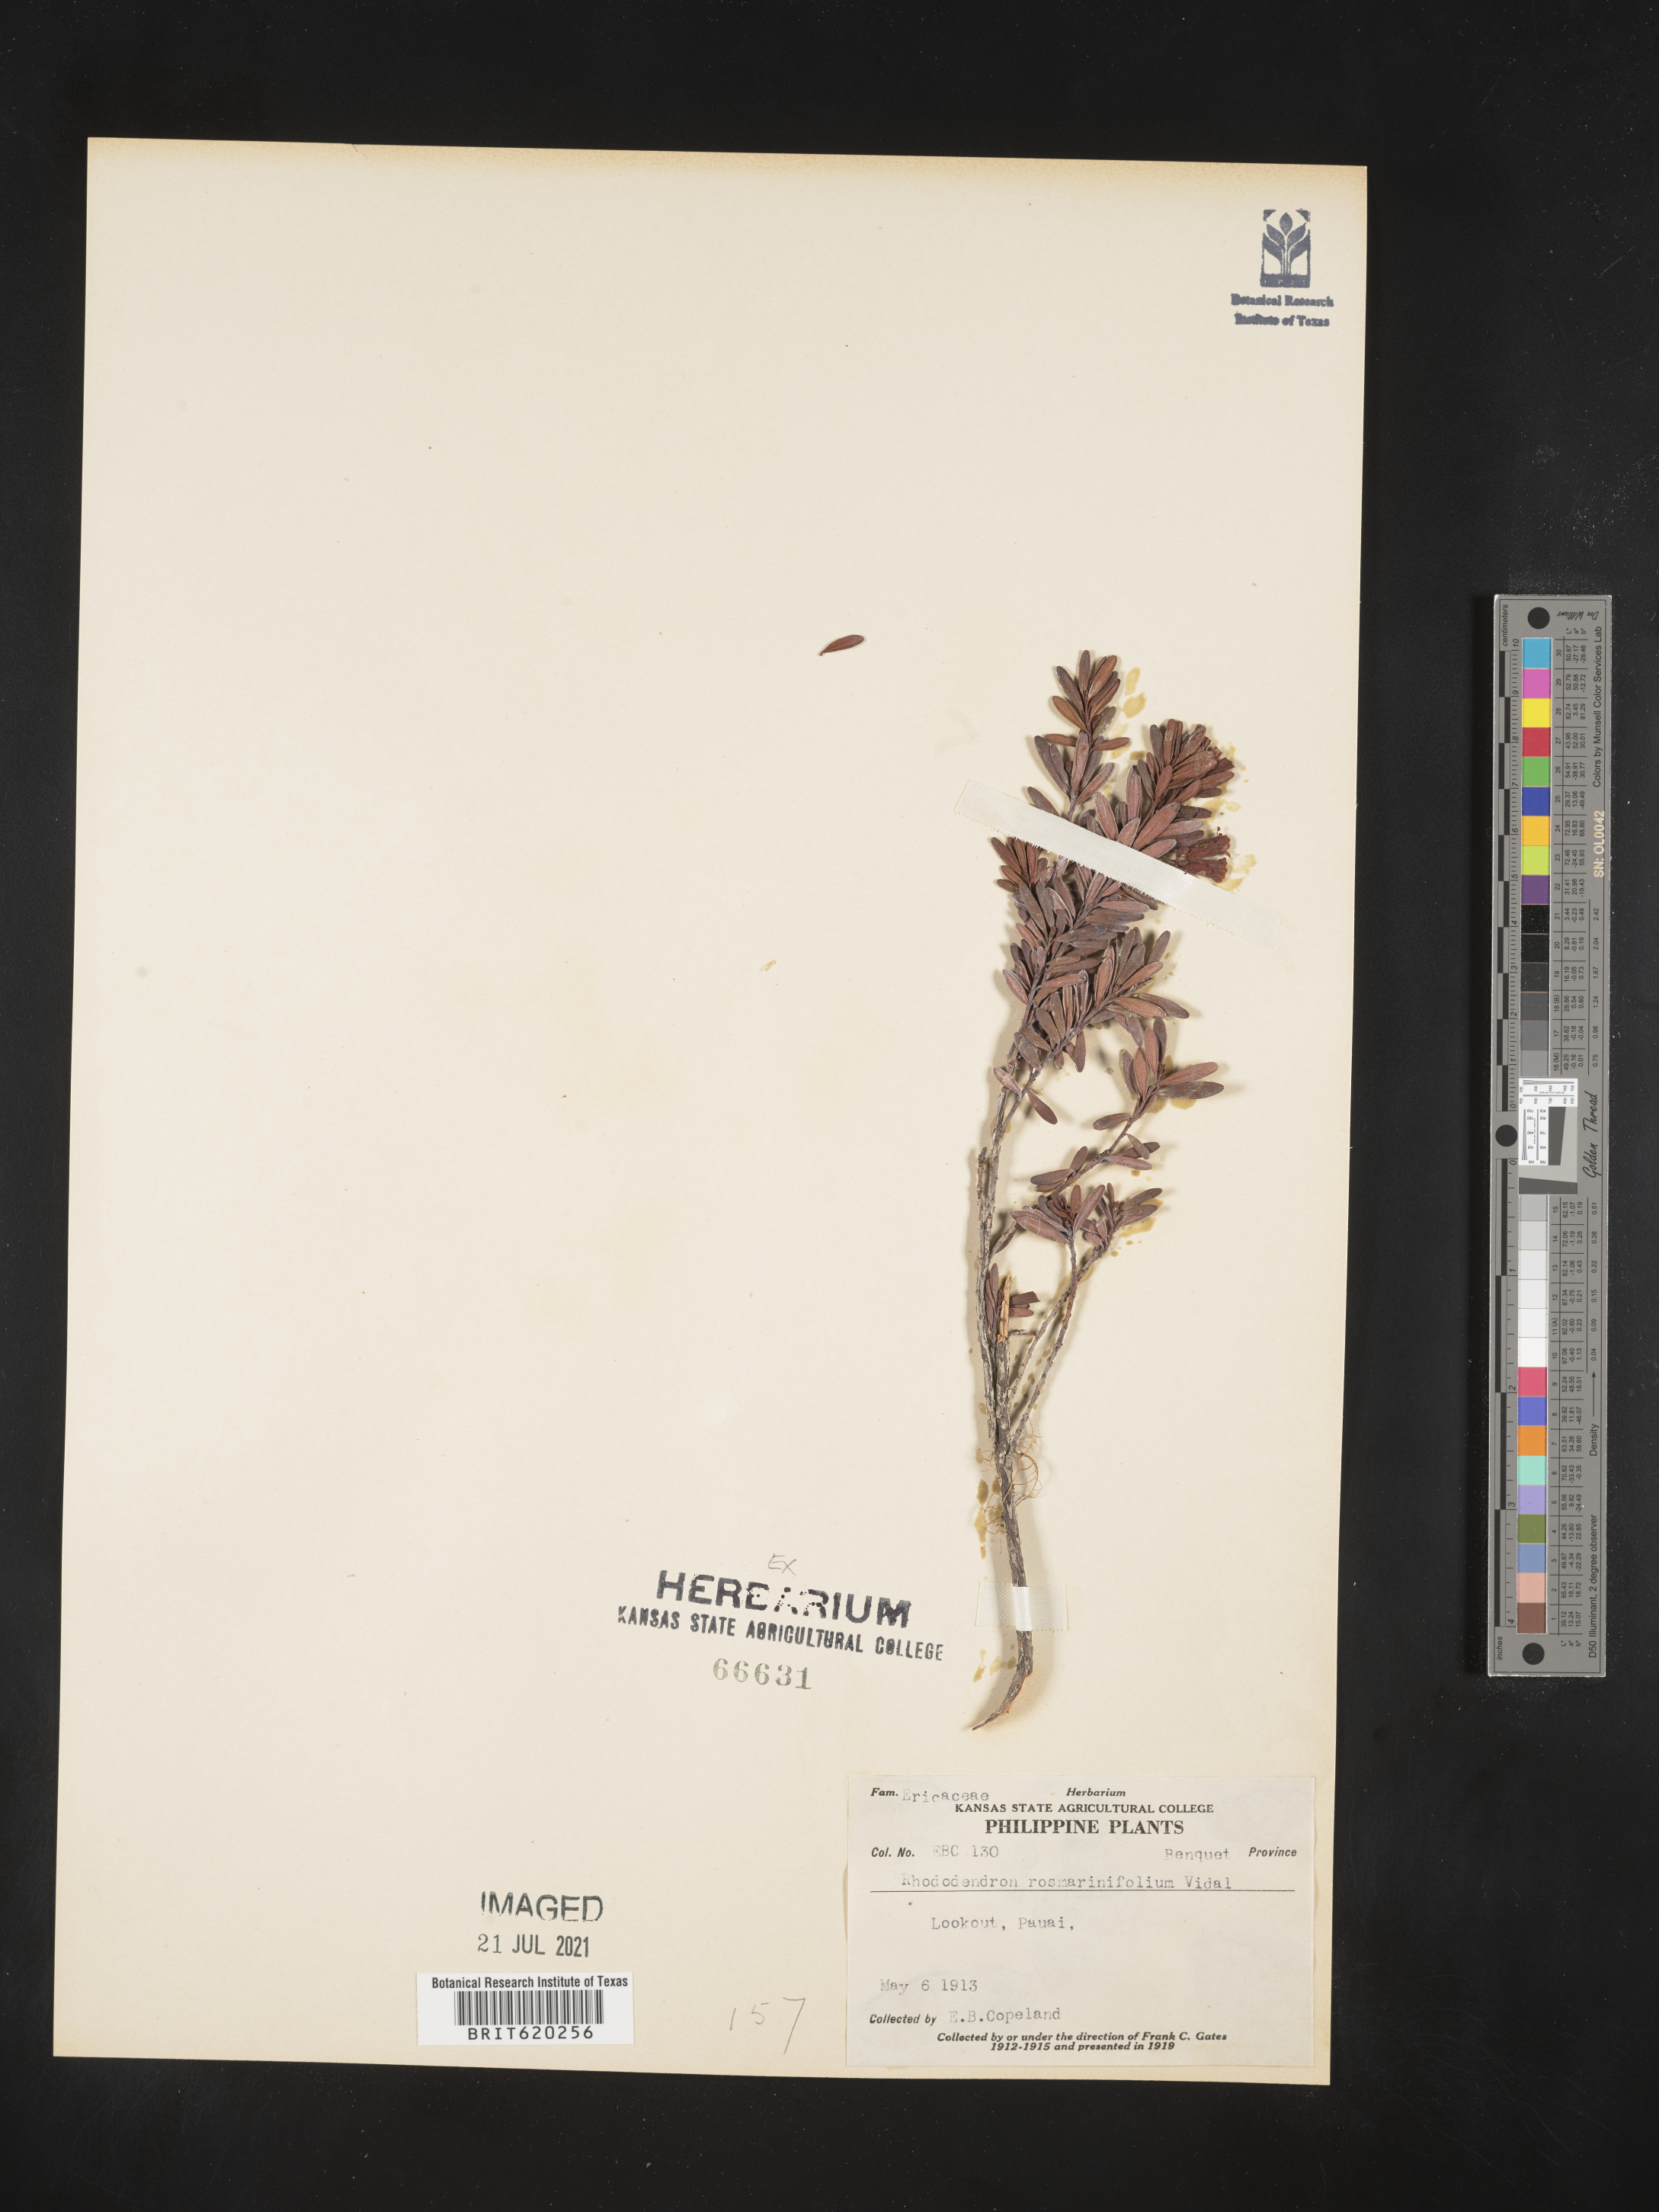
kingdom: Plantae
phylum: Tracheophyta
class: Magnoliopsida
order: Ericales
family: Ericaceae
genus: Rhododendron
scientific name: Rhododendron quadrasianum
